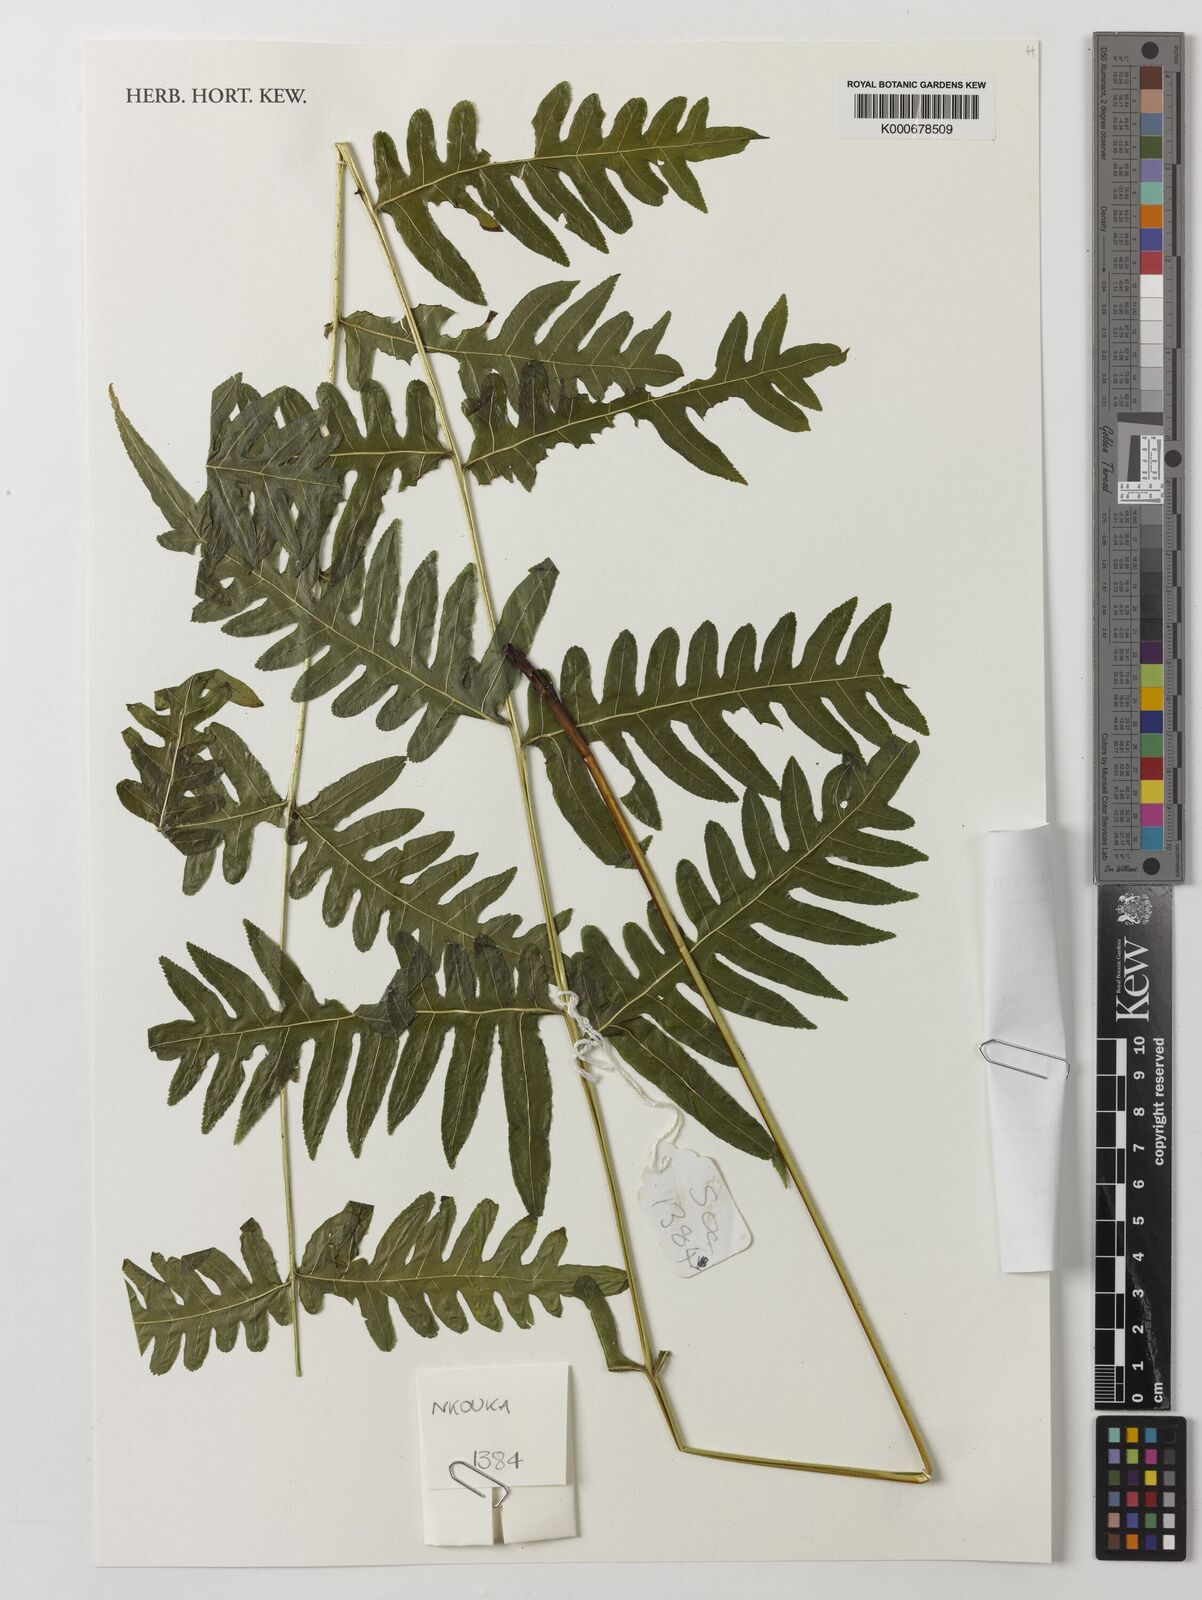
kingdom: Plantae
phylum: Tracheophyta
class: Polypodiopsida
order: Polypodiales
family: Pteridaceae
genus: Pteris
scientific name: Pteris similis
